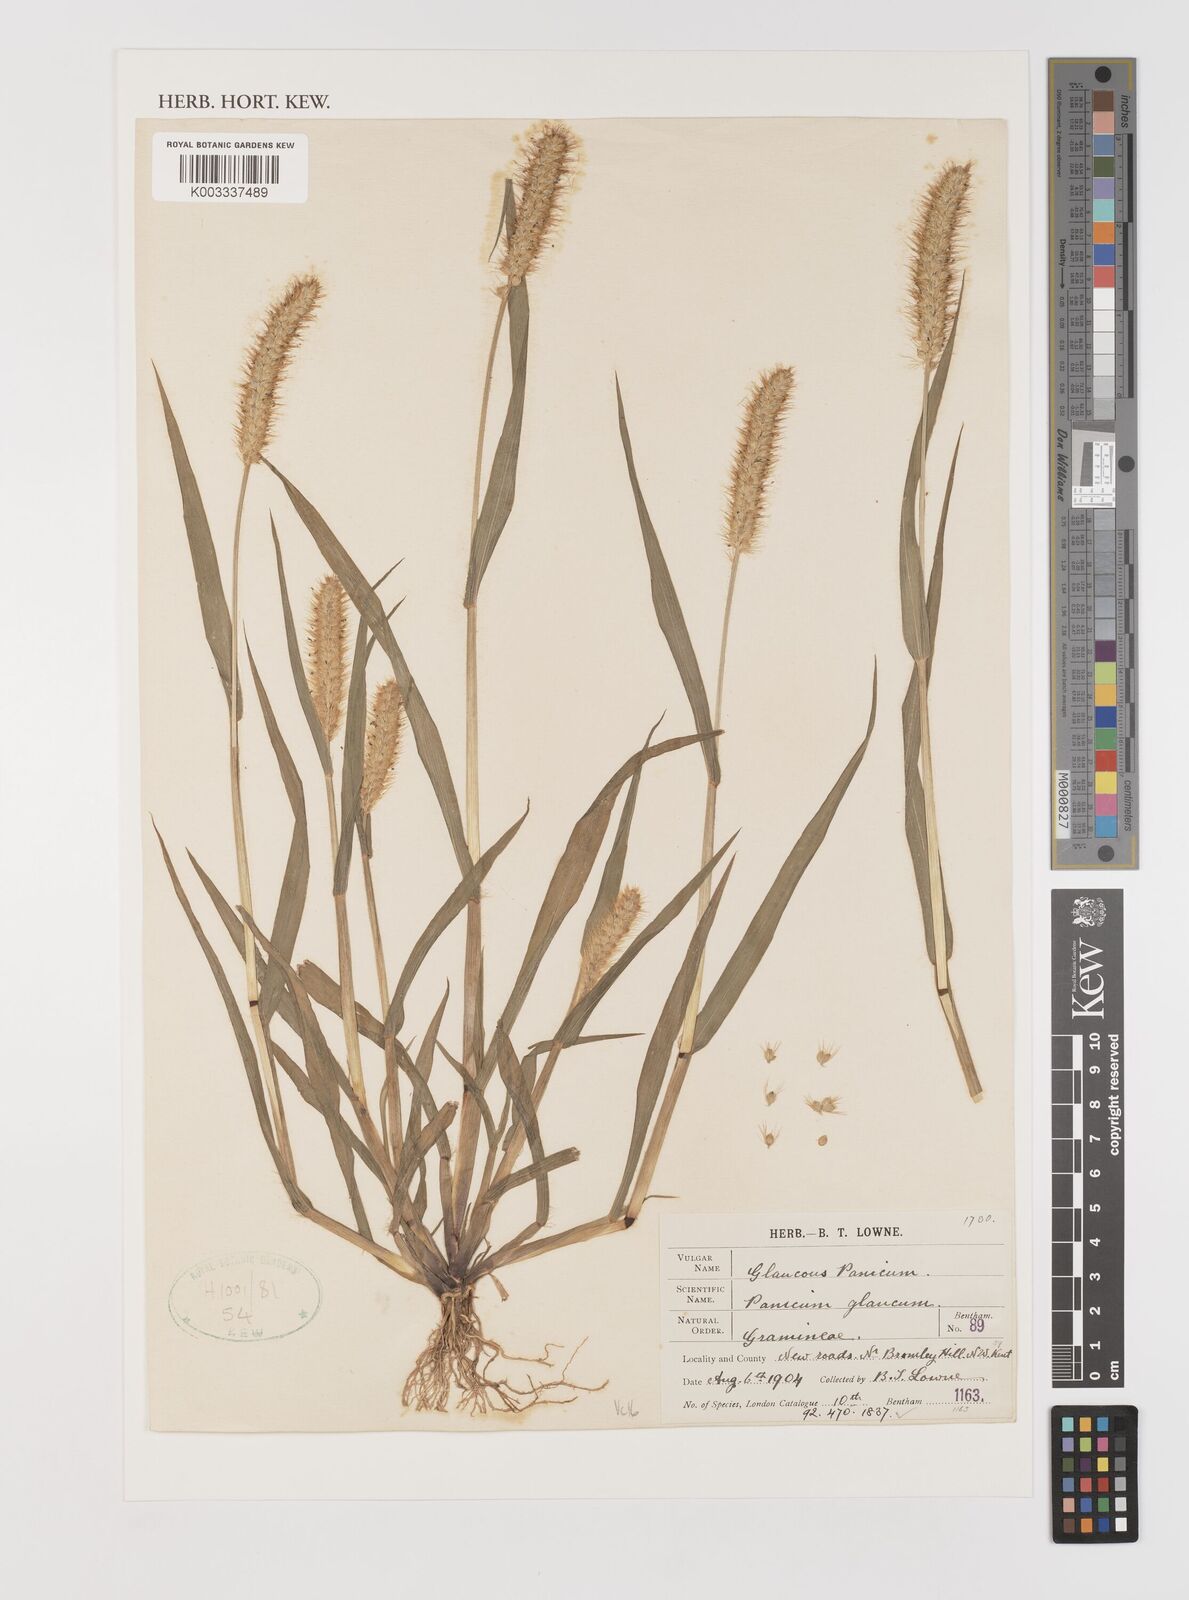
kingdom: Plantae
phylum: Tracheophyta
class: Liliopsida
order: Poales
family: Poaceae
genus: Setaria
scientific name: Setaria pumila
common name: Yellow bristle-grass
